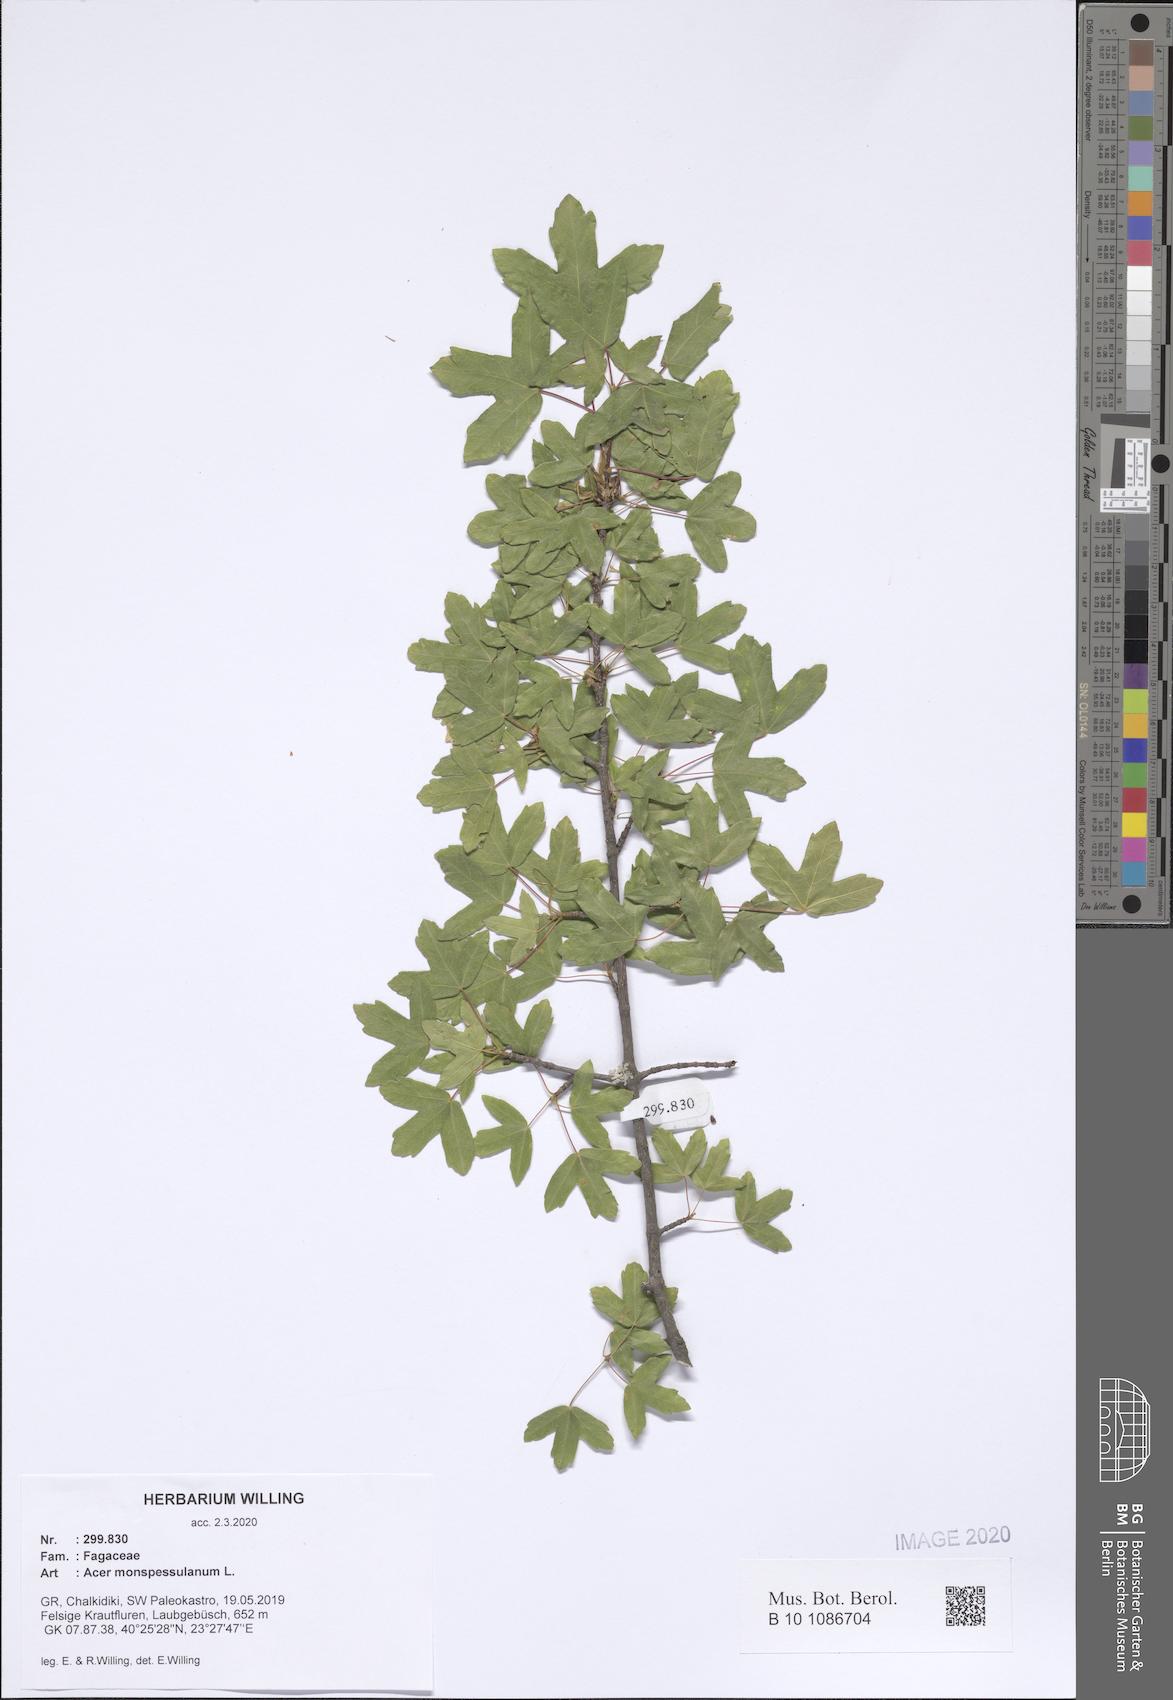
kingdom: Plantae
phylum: Tracheophyta
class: Magnoliopsida
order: Sapindales
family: Sapindaceae
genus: Acer
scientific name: Acer monspessulanum
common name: Montpellier maple
